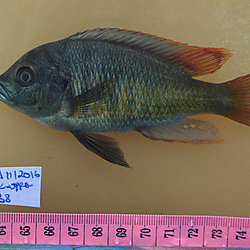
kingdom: Animalia
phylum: Chordata
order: Perciformes
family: Cichlidae
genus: Haplochromis
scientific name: Haplochromis mbipi
